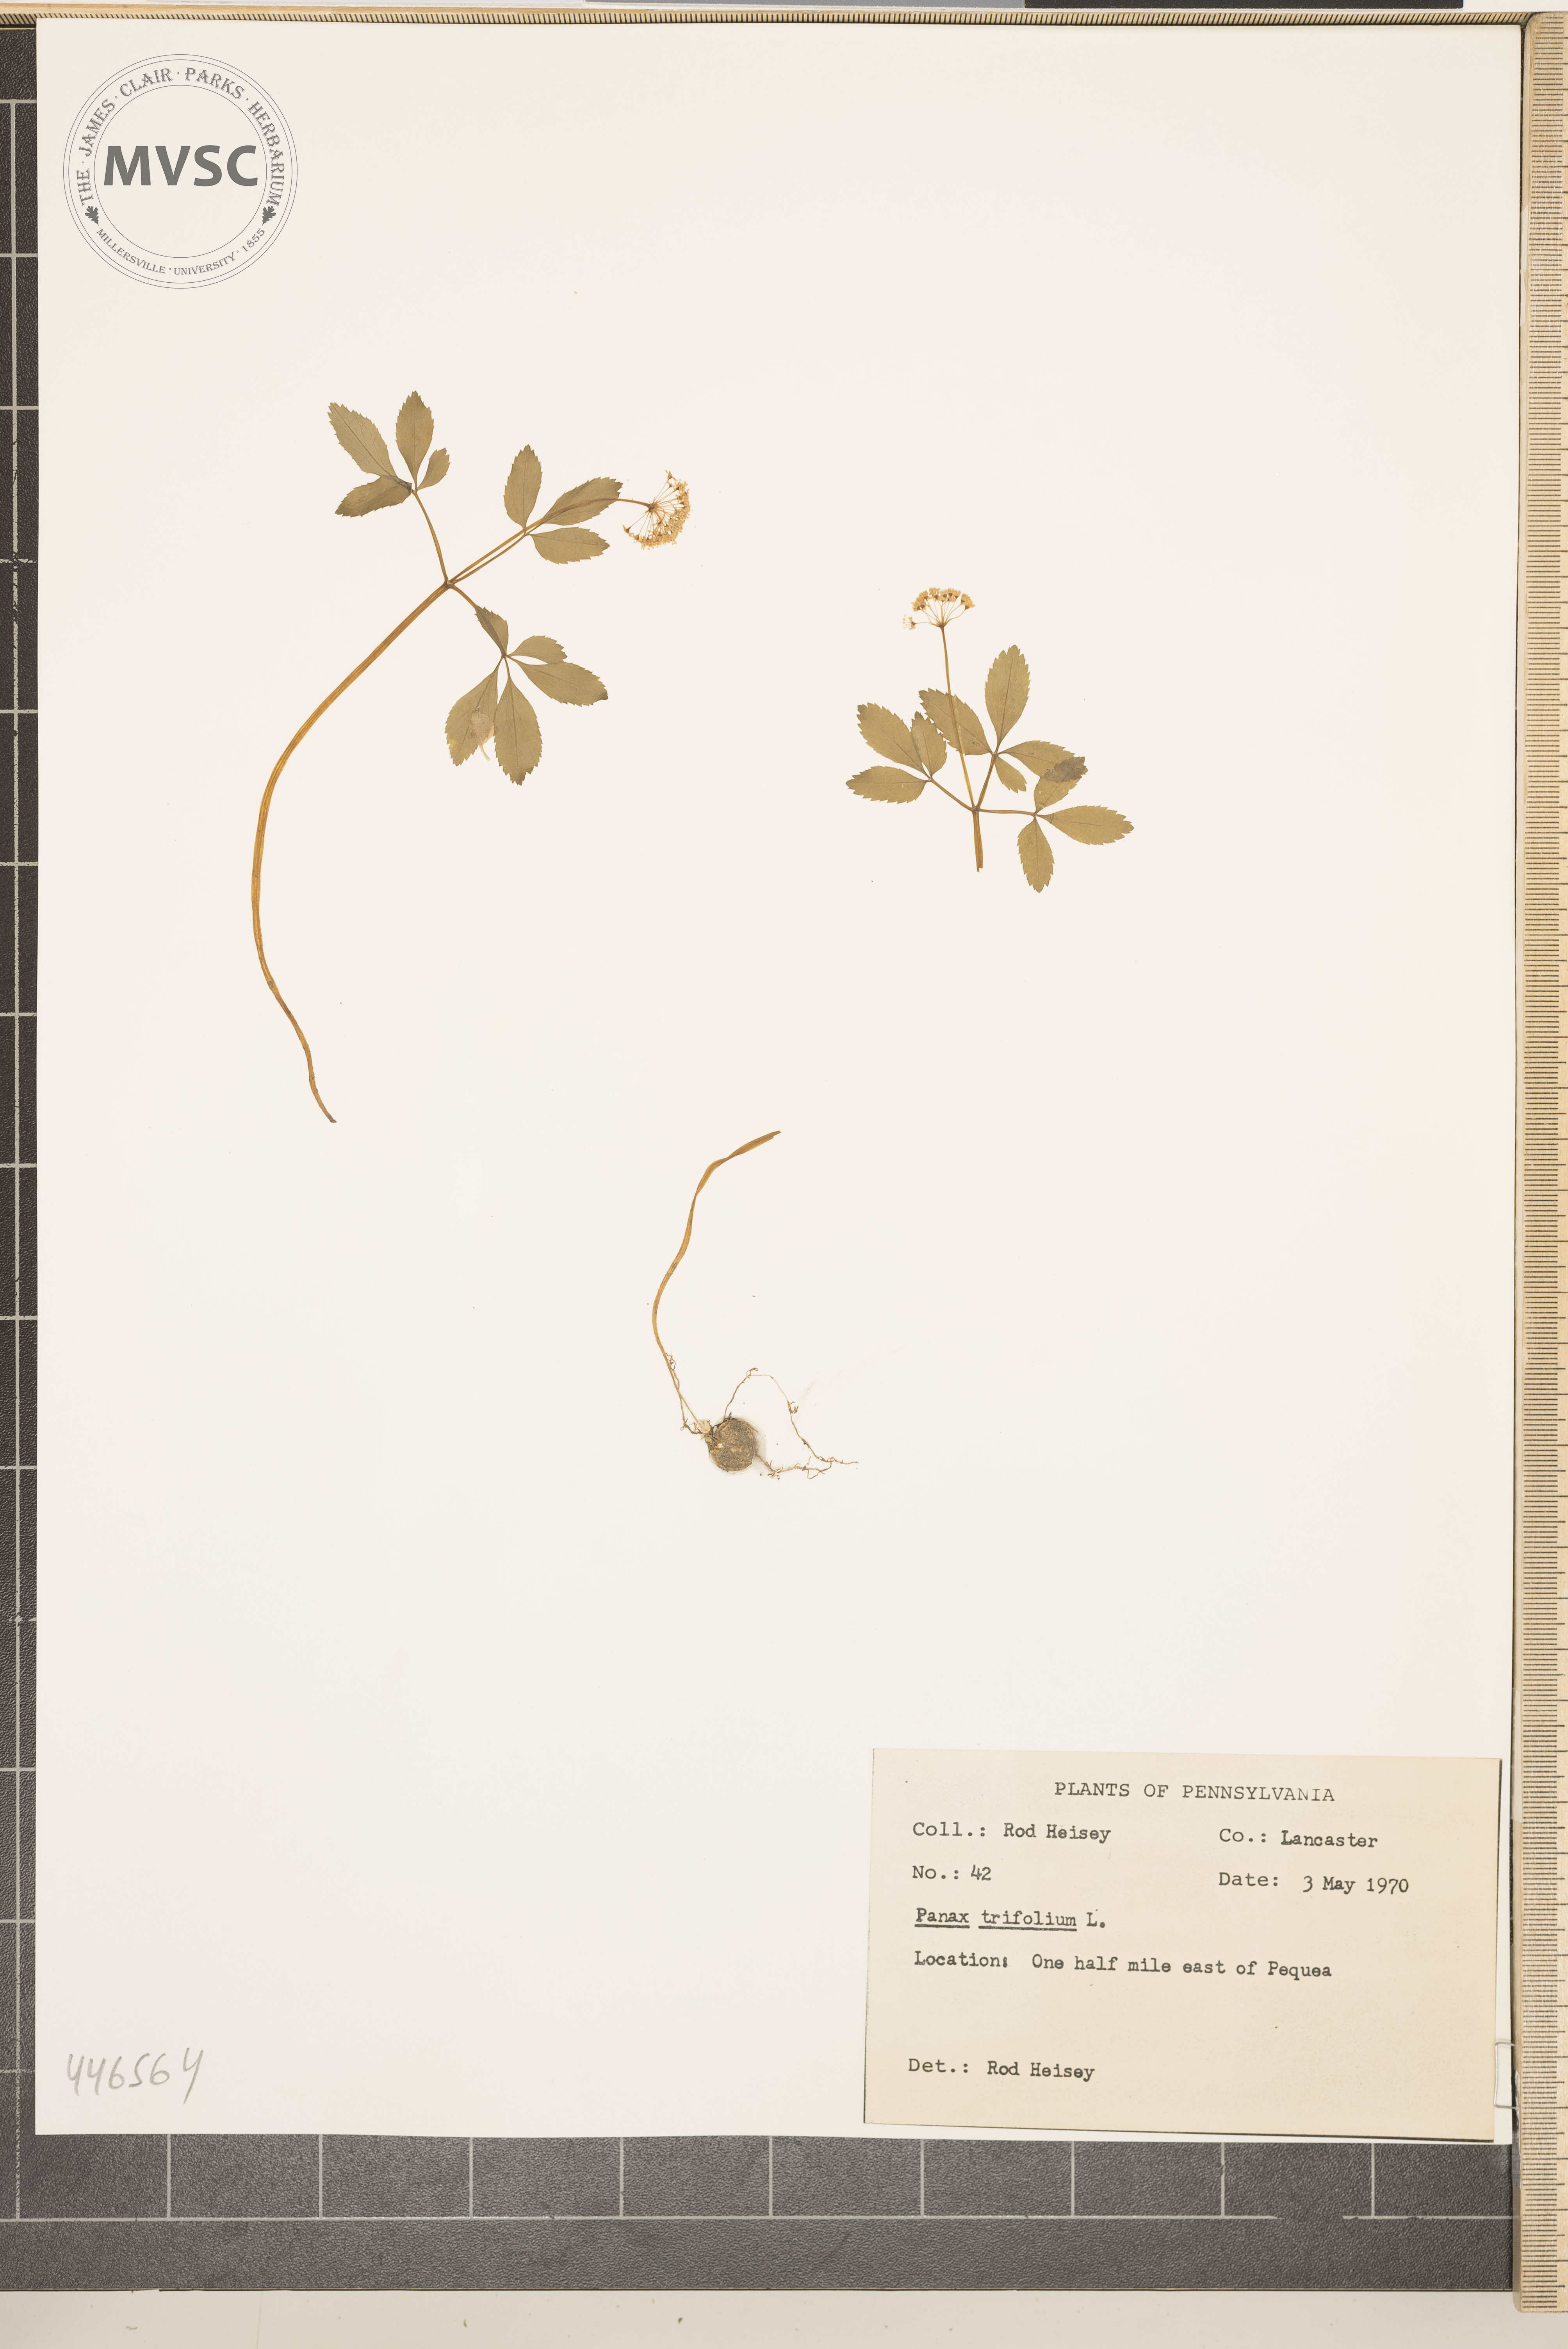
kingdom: Plantae
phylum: Tracheophyta
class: Magnoliopsida
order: Apiales
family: Araliaceae
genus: Panax
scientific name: Panax trifolius
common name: Dwarf ginseng
